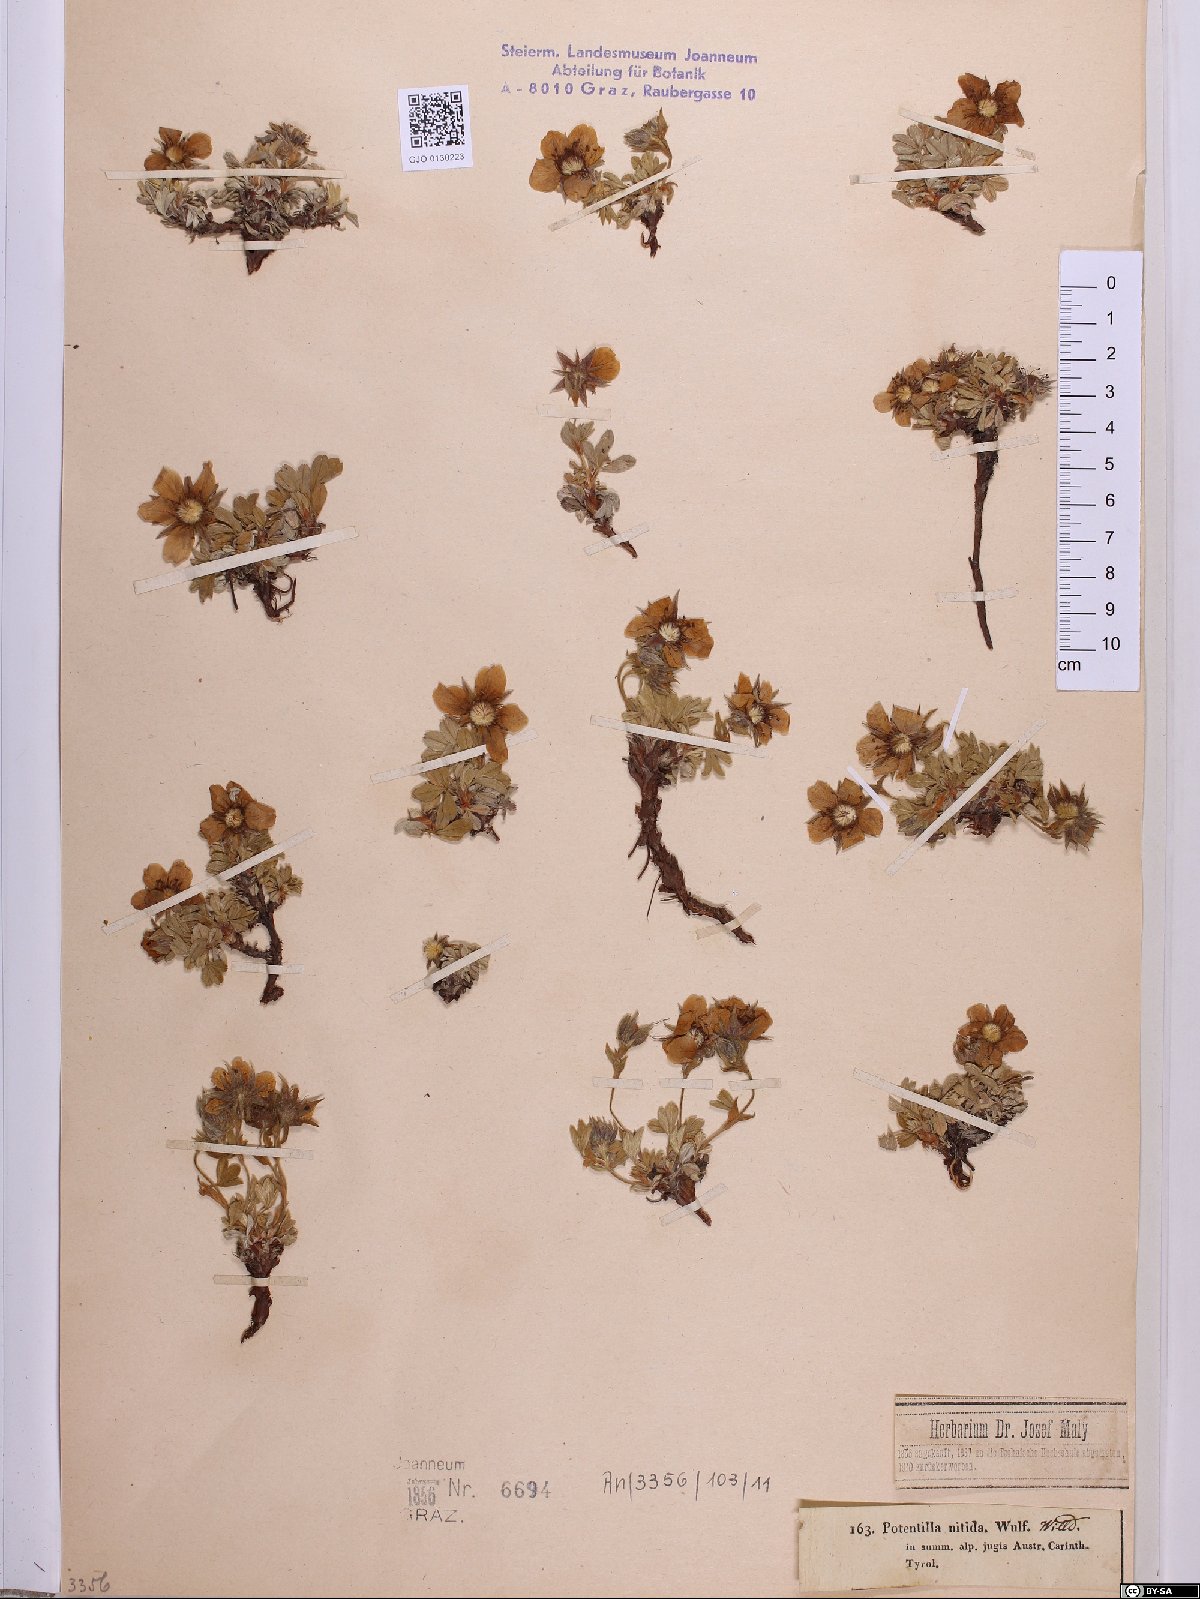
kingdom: Plantae
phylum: Tracheophyta
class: Magnoliopsida
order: Rosales
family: Rosaceae
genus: Potentilla
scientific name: Potentilla nitida
